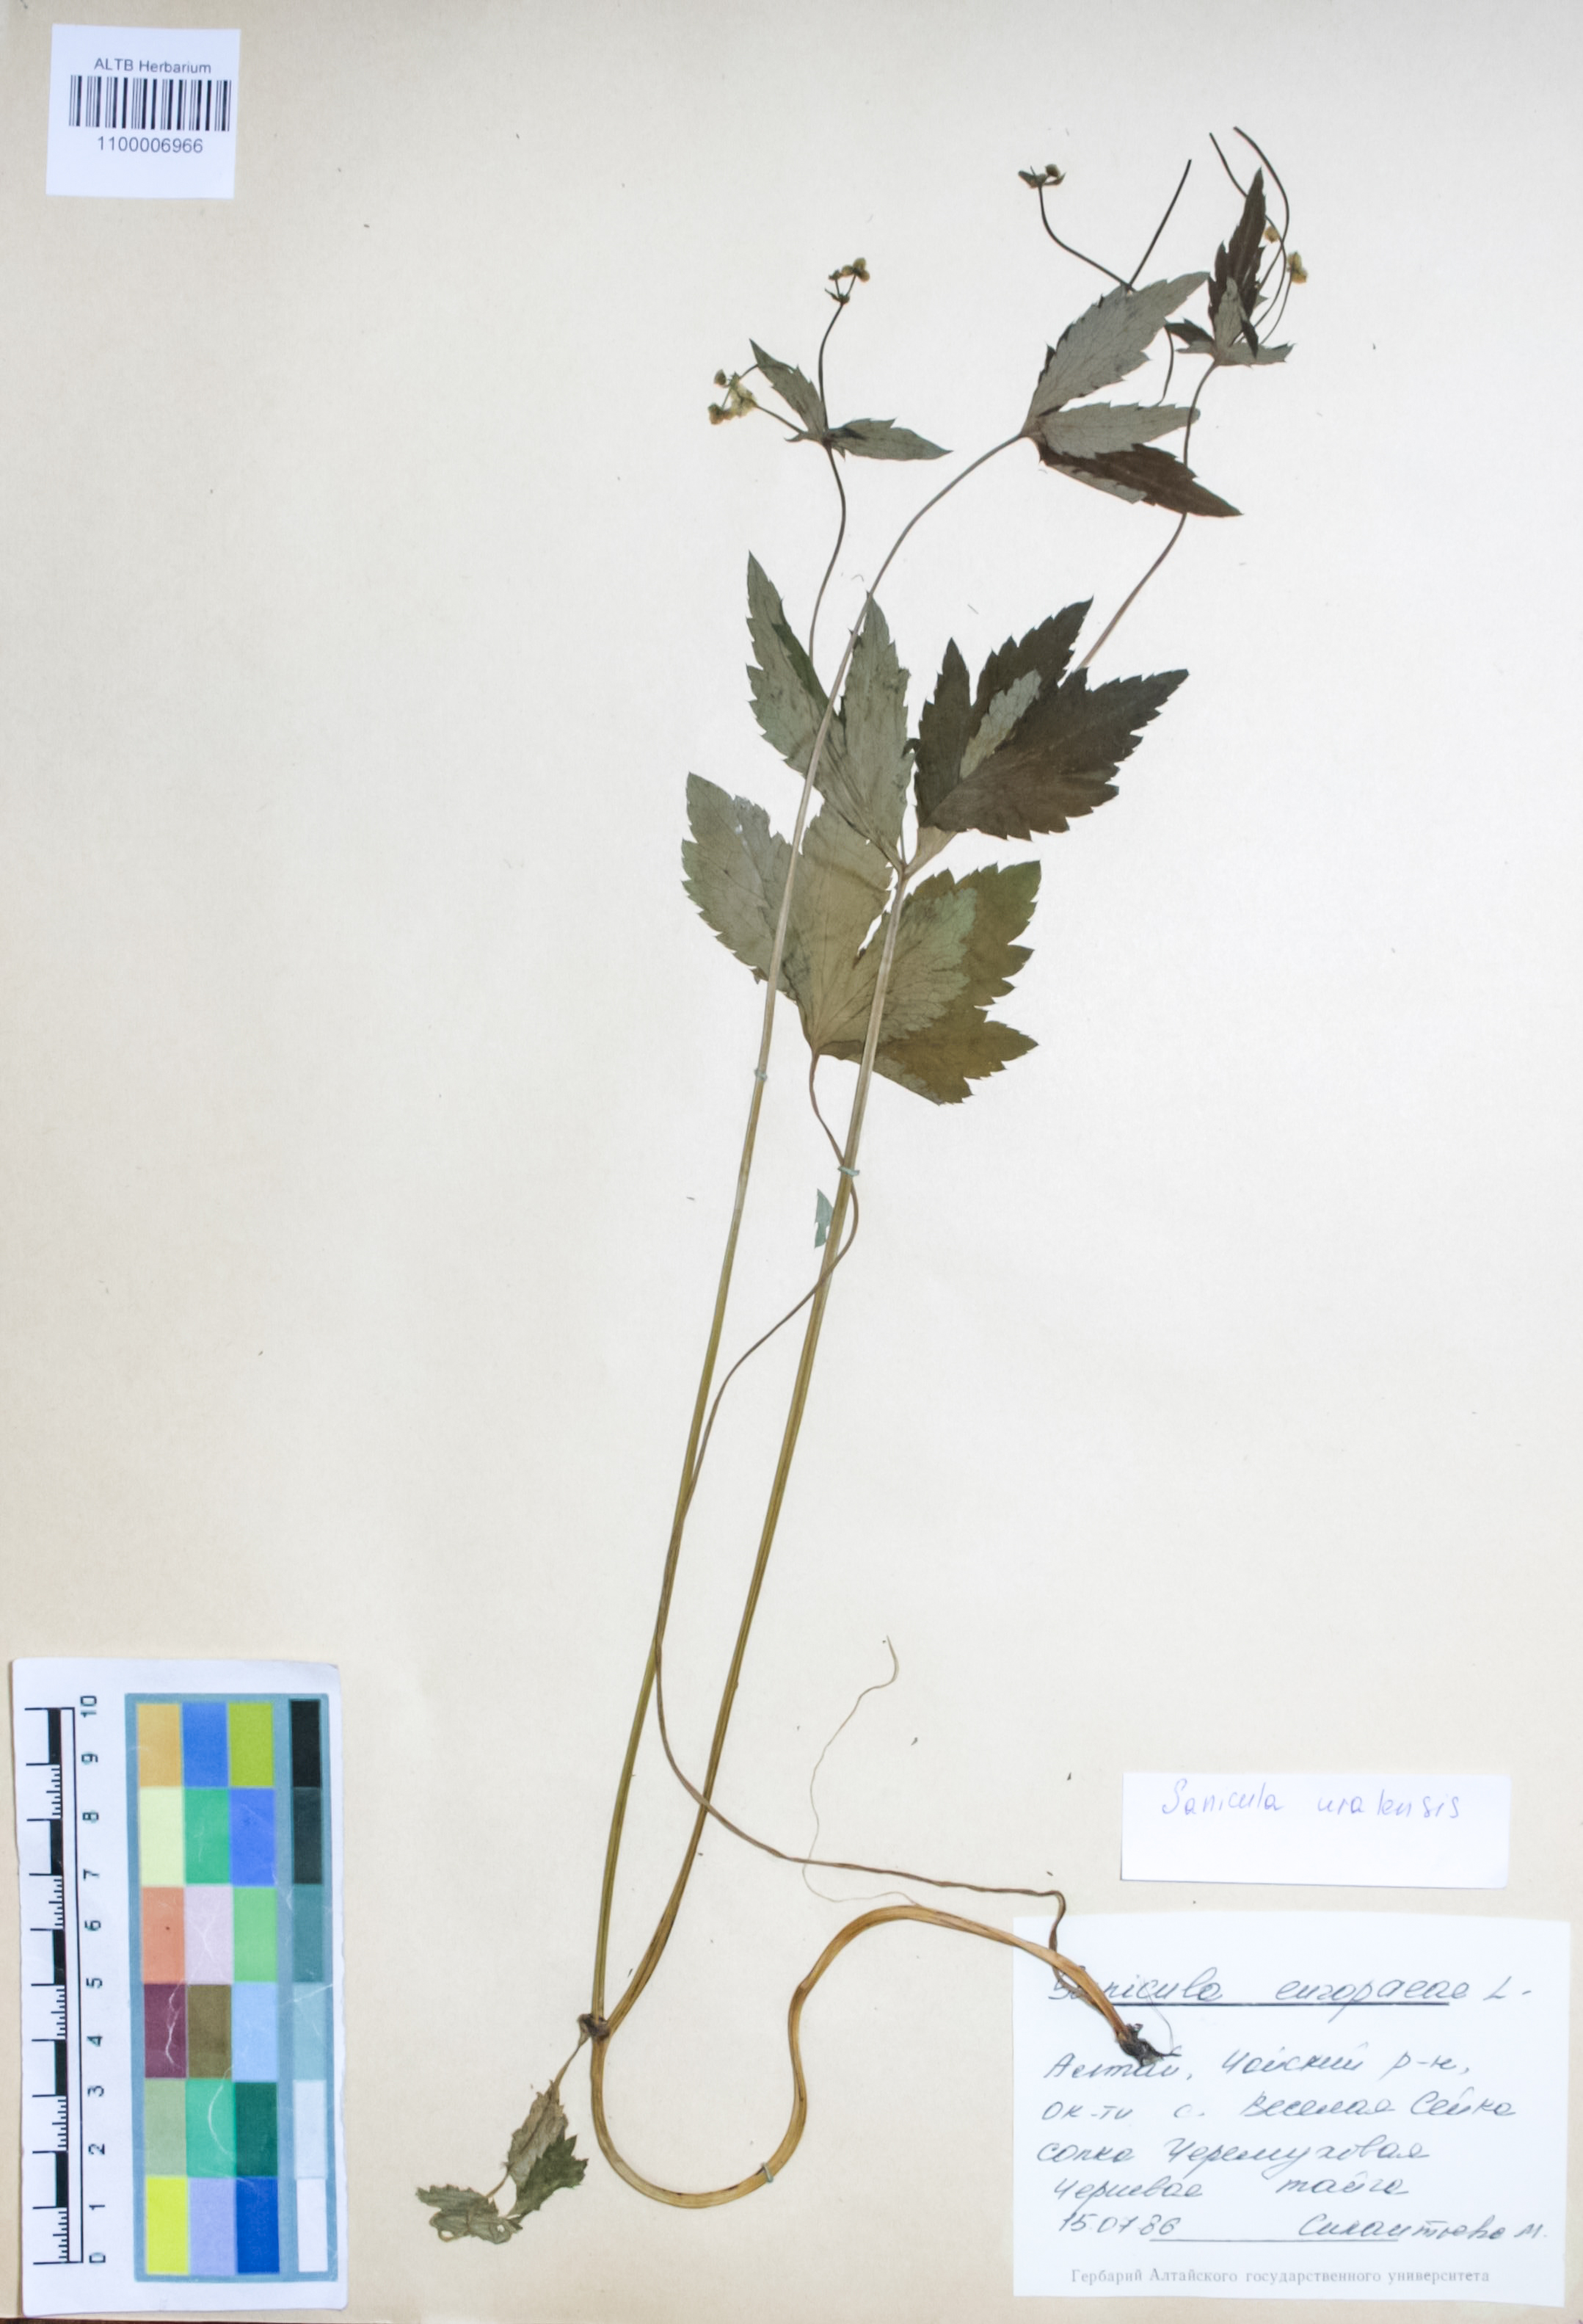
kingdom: Plantae
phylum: Tracheophyta
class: Magnoliopsida
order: Apiales
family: Apiaceae
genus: Sanicula
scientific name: Sanicula giraldii
